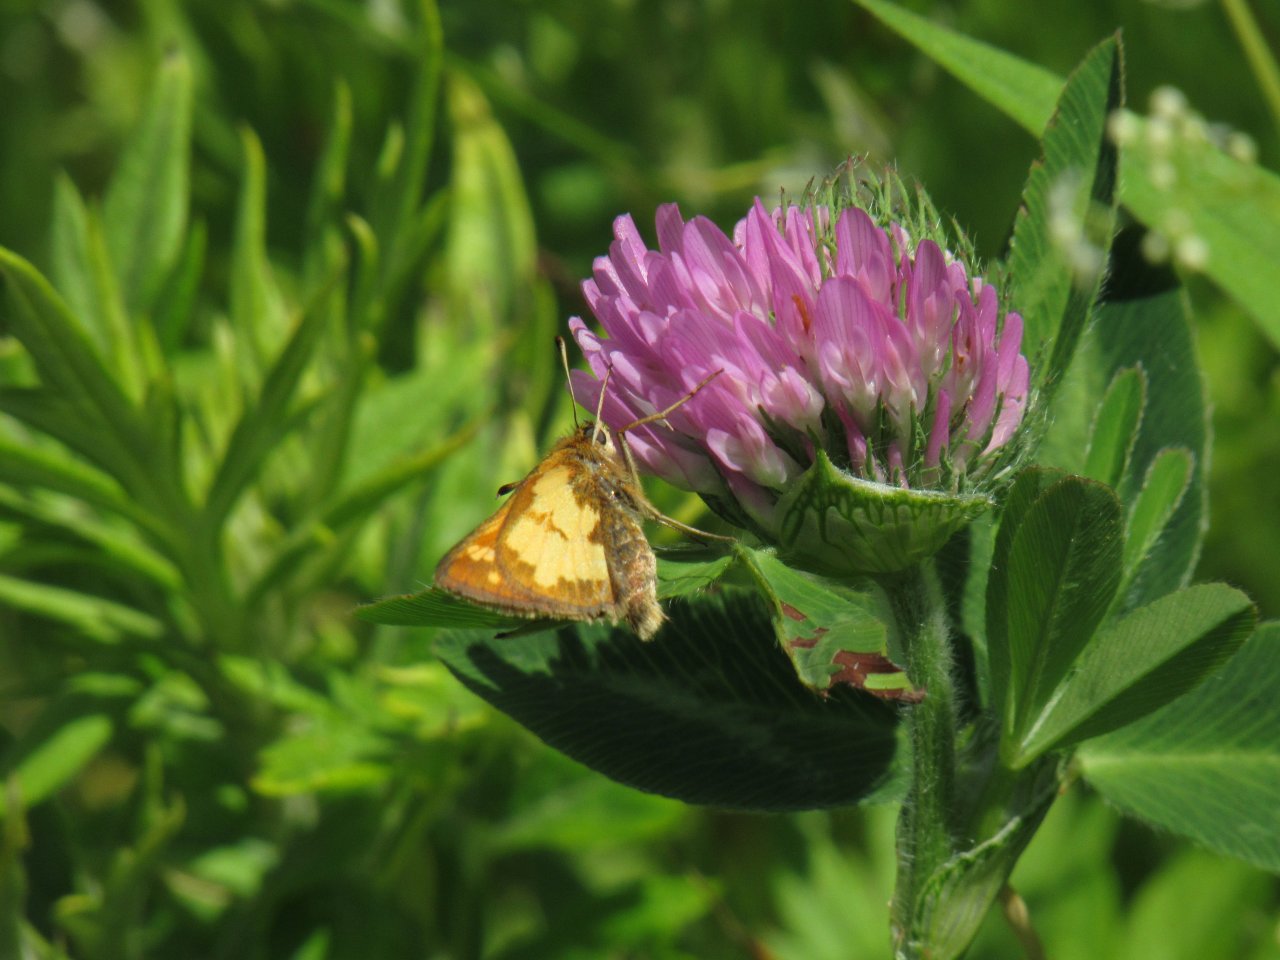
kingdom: Animalia
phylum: Arthropoda
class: Insecta
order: Lepidoptera
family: Hesperiidae
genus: Polites
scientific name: Polites coras
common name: Peck's Skipper
